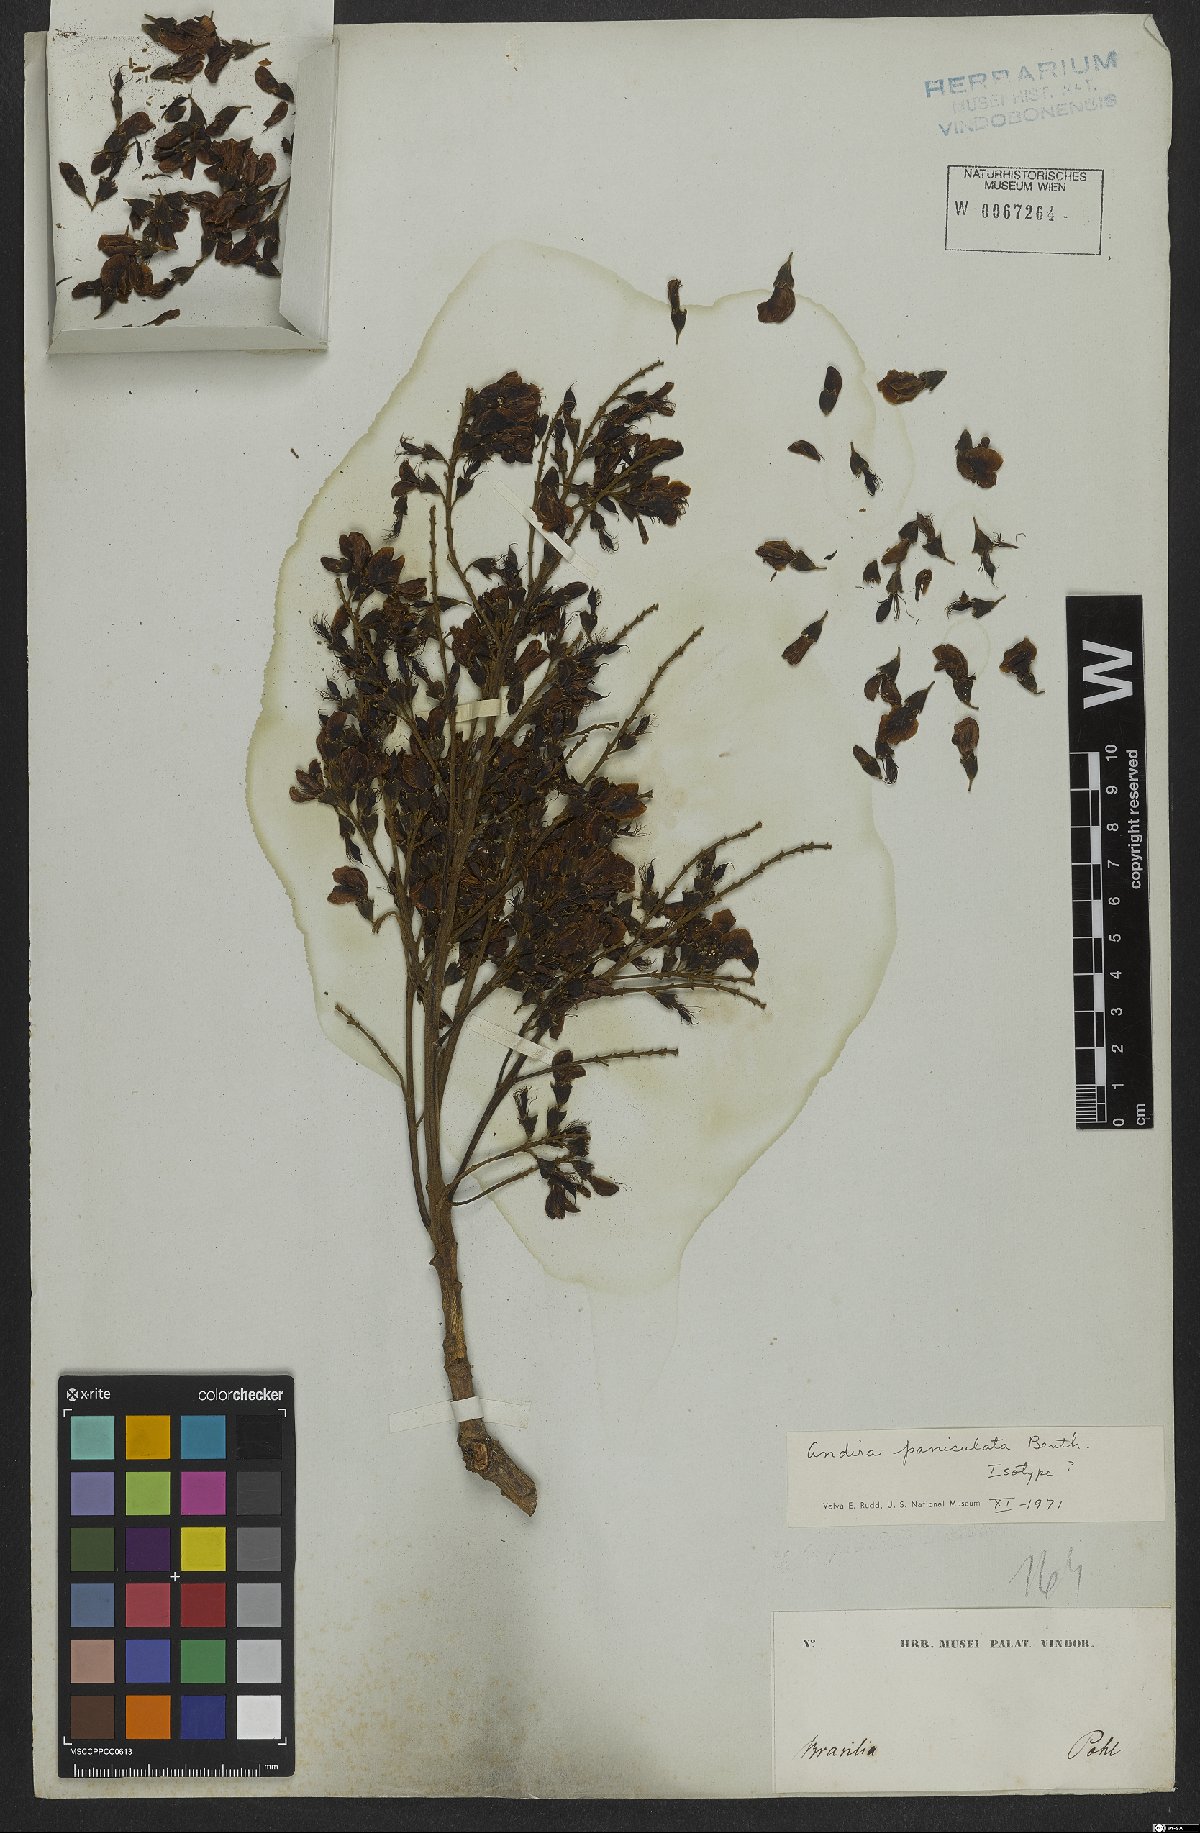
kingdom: Plantae
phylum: Tracheophyta
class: Magnoliopsida
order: Fabales
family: Fabaceae
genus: Andira
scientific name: Andira vermifuga
